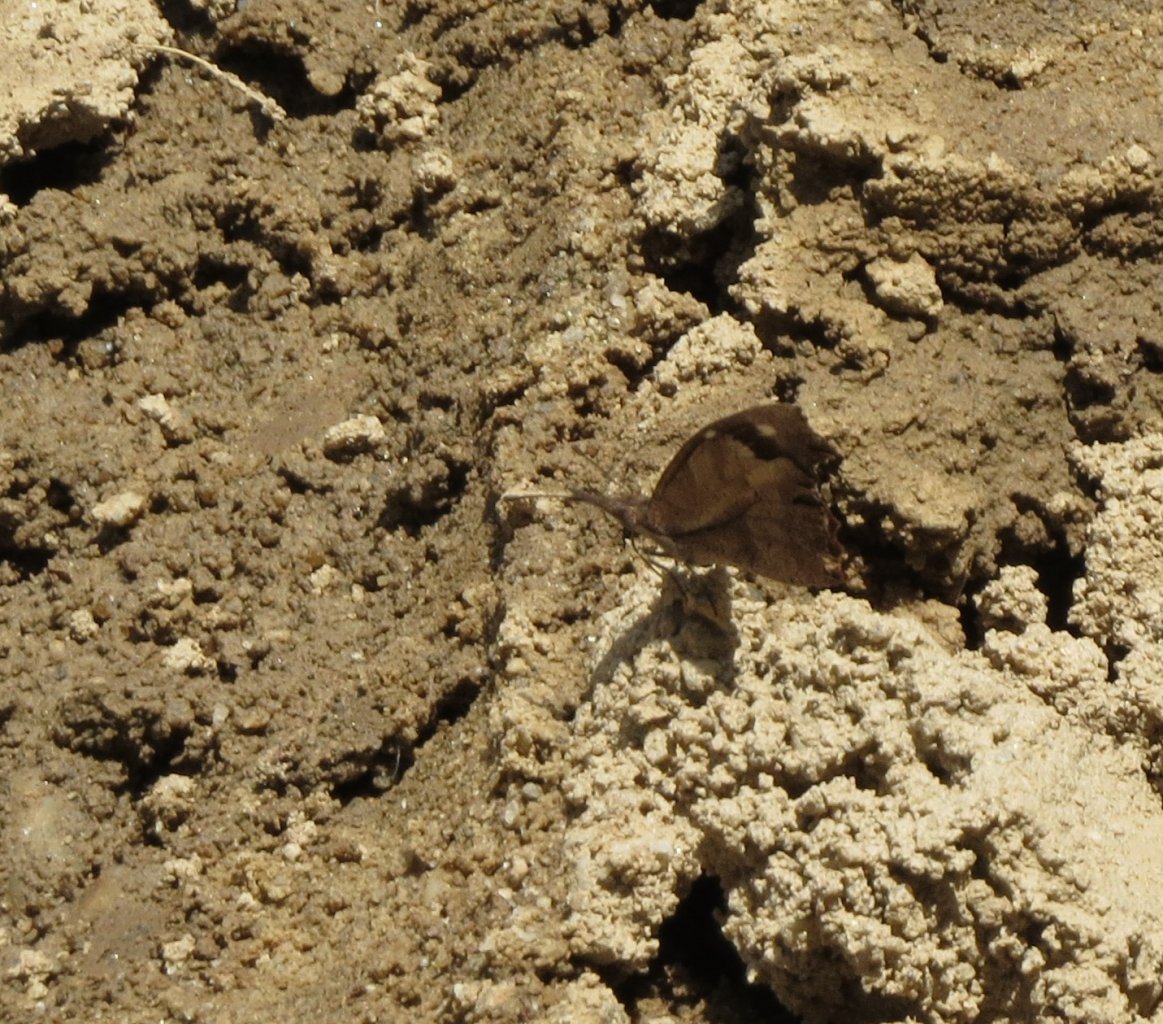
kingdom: Animalia
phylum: Arthropoda
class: Insecta
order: Lepidoptera
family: Nymphalidae
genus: Libytheana
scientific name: Libytheana carinenta
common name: American Snout
